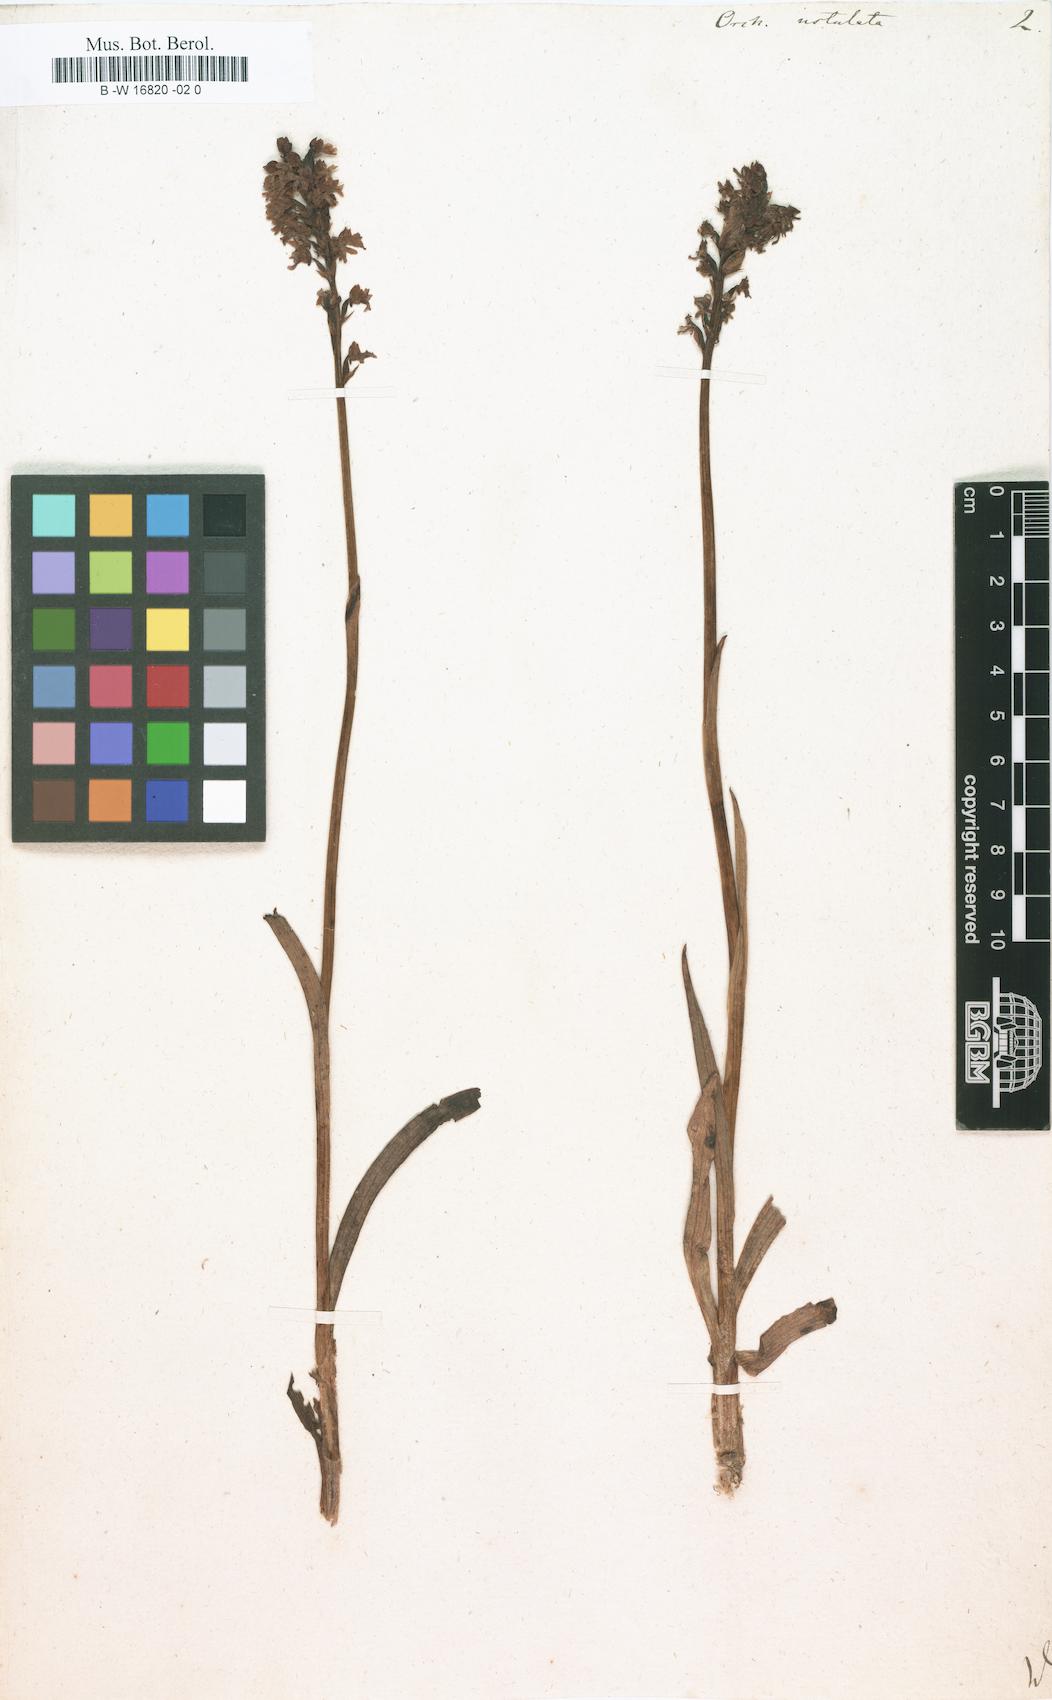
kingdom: Plantae
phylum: Tracheophyta
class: Liliopsida
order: Asparagales
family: Orchidaceae
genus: Neotinea
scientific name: Neotinea ustulata
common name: Burnt orchid
